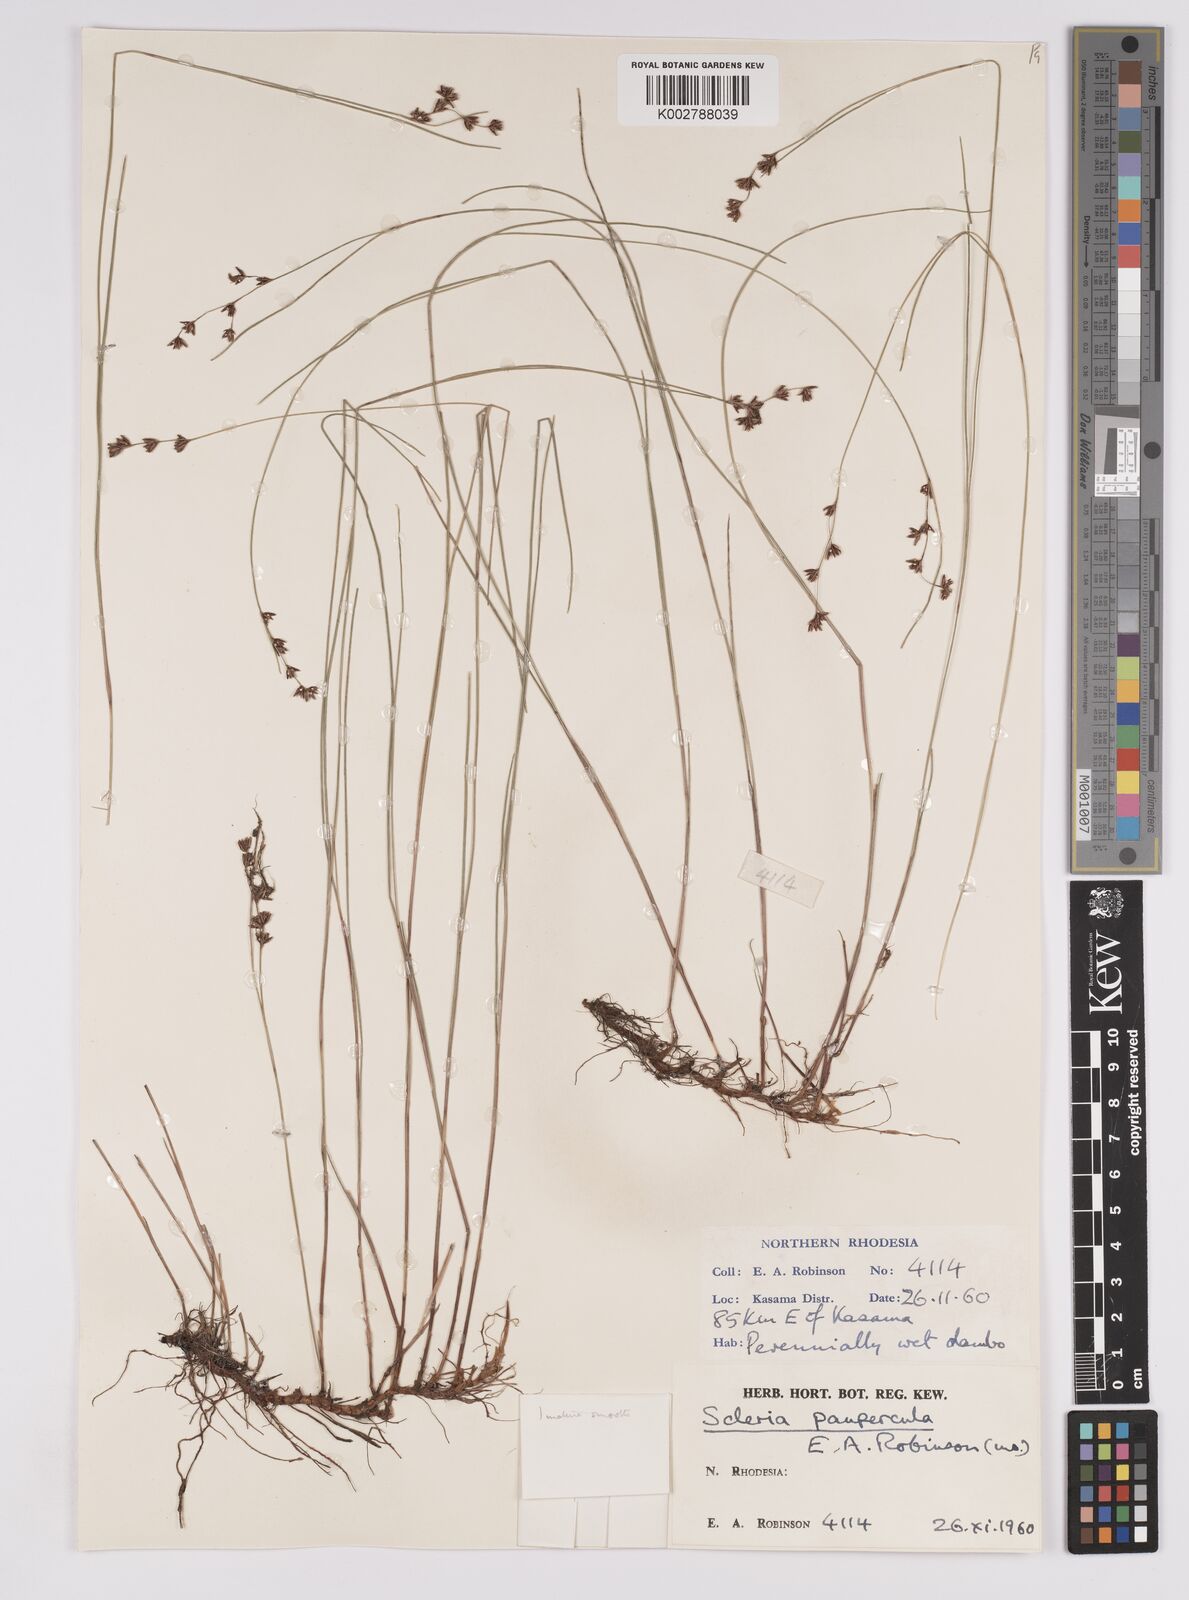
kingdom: Plantae
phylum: Tracheophyta
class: Liliopsida
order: Poales
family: Cyperaceae
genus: Scleria
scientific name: Scleria paupercula
